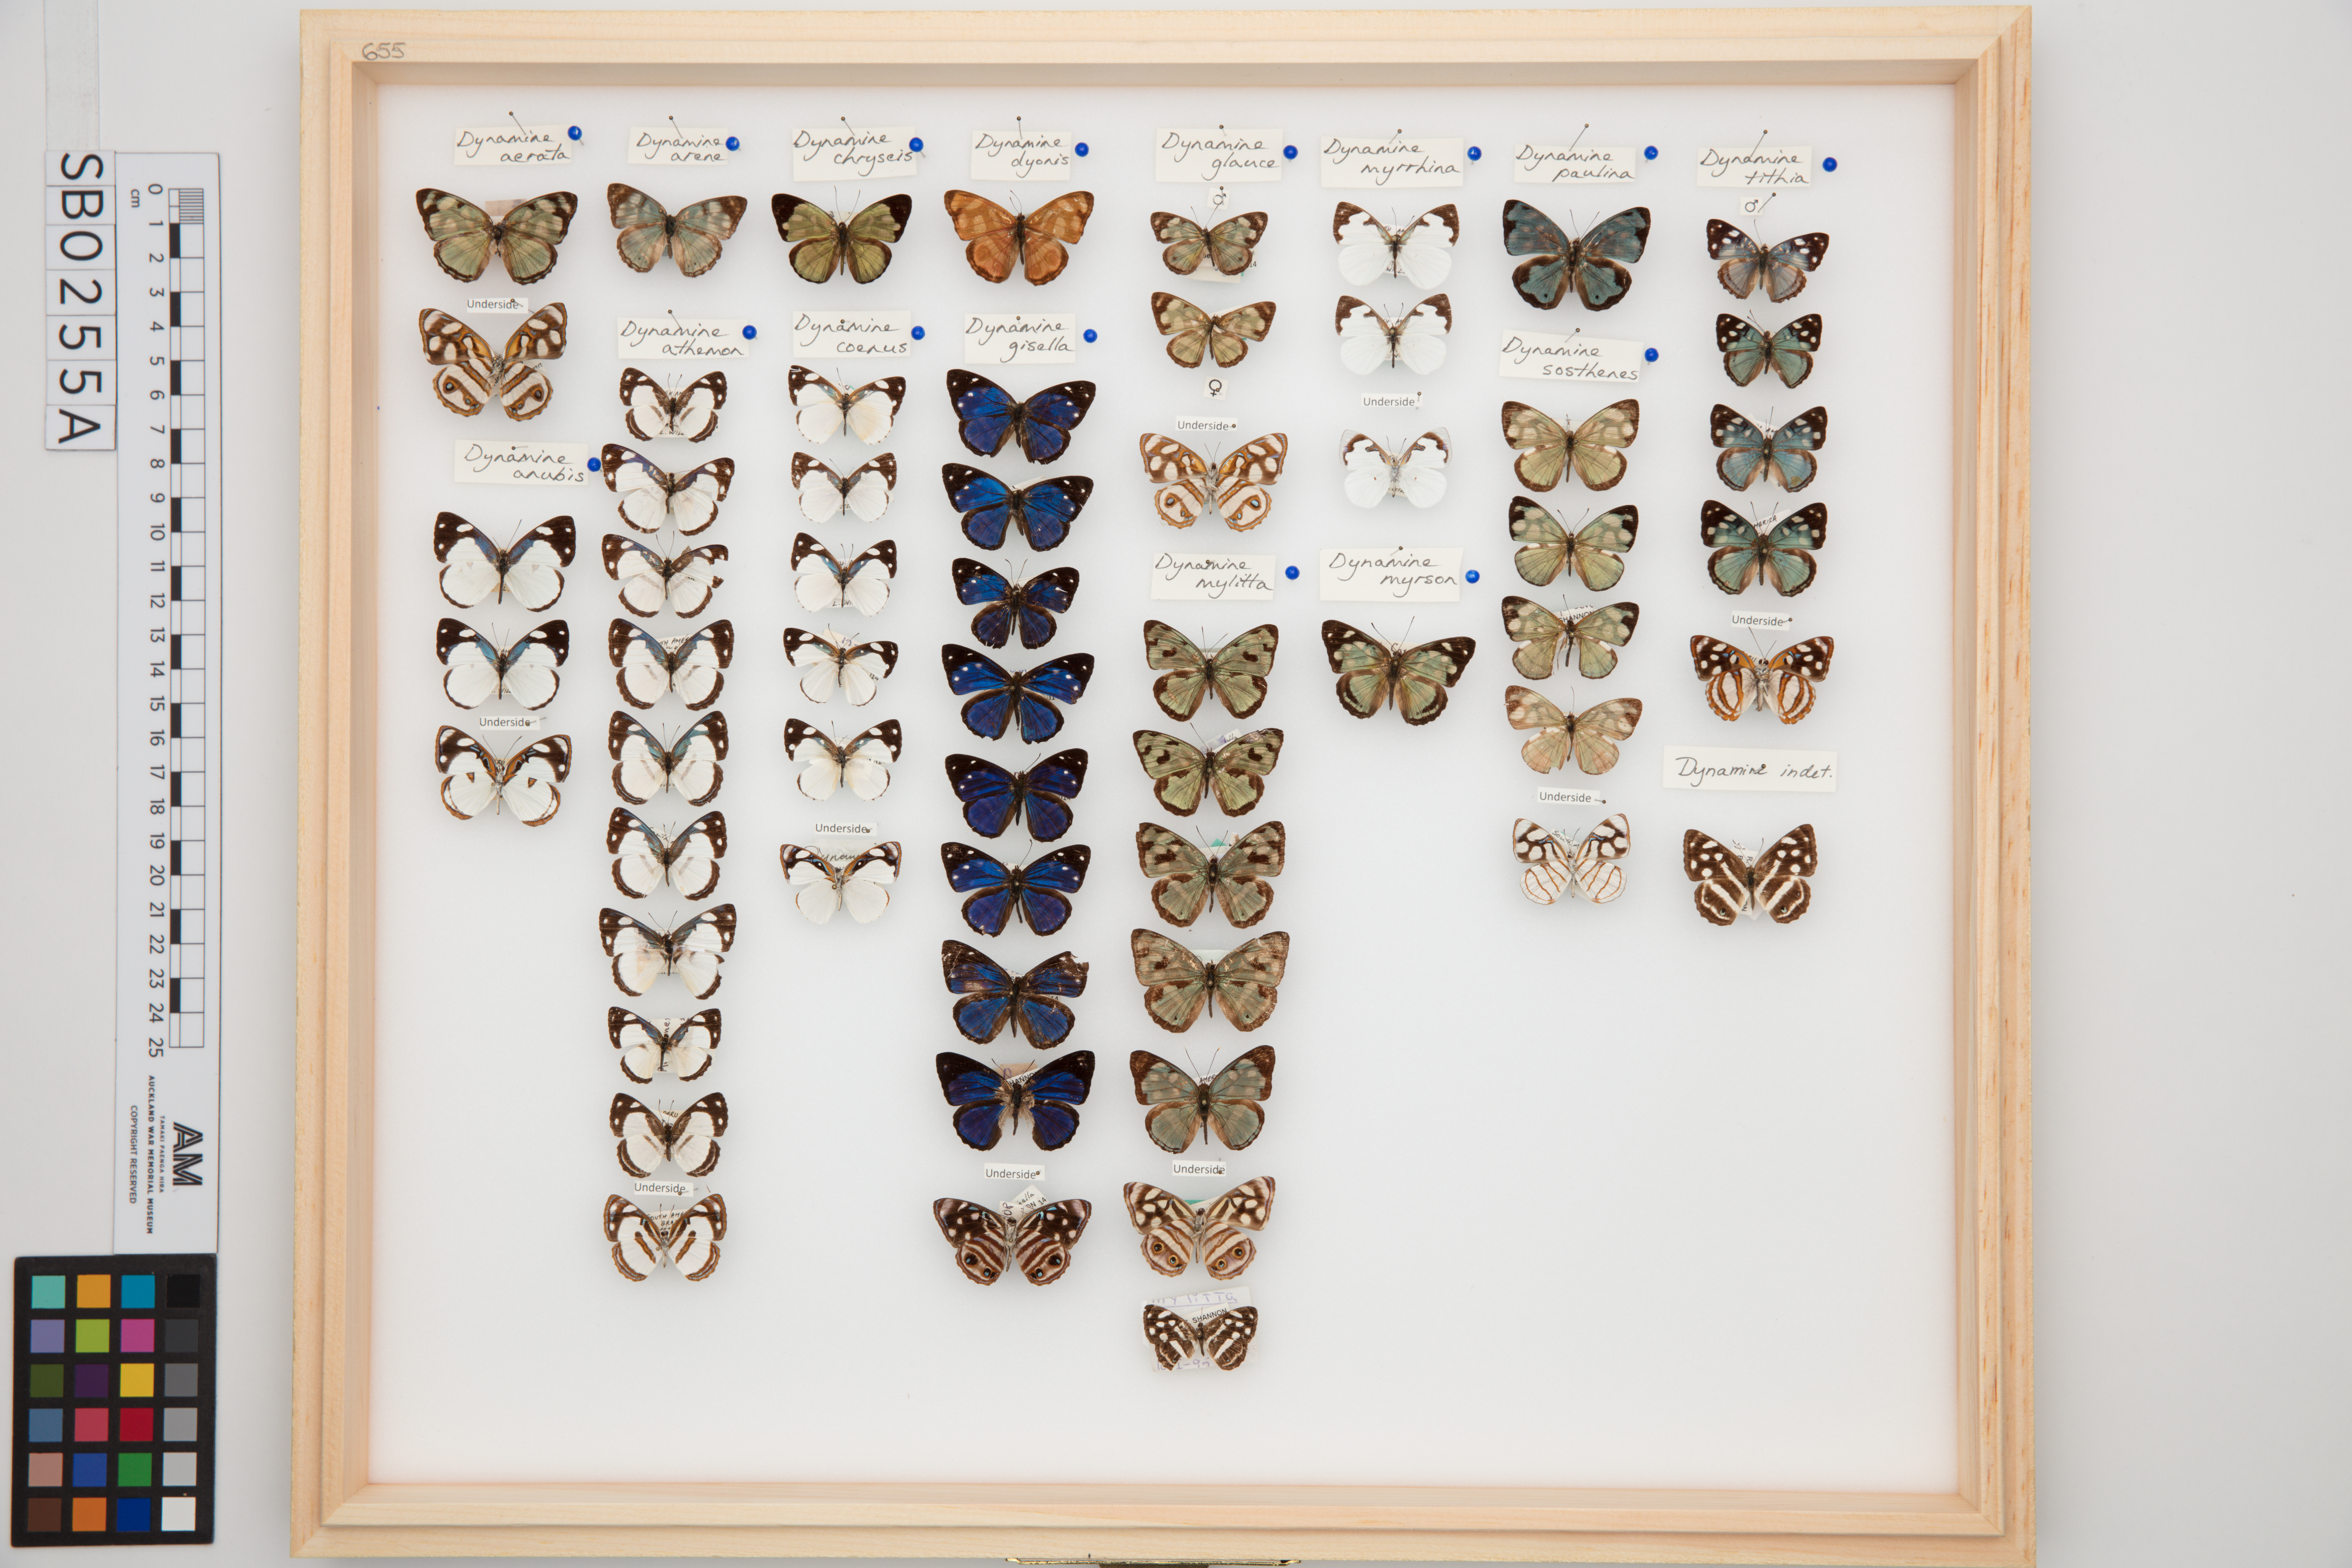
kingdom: Animalia
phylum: Arthropoda
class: Insecta
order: Lepidoptera
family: Nymphalidae
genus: Dynamine
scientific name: Dynamine glauce
